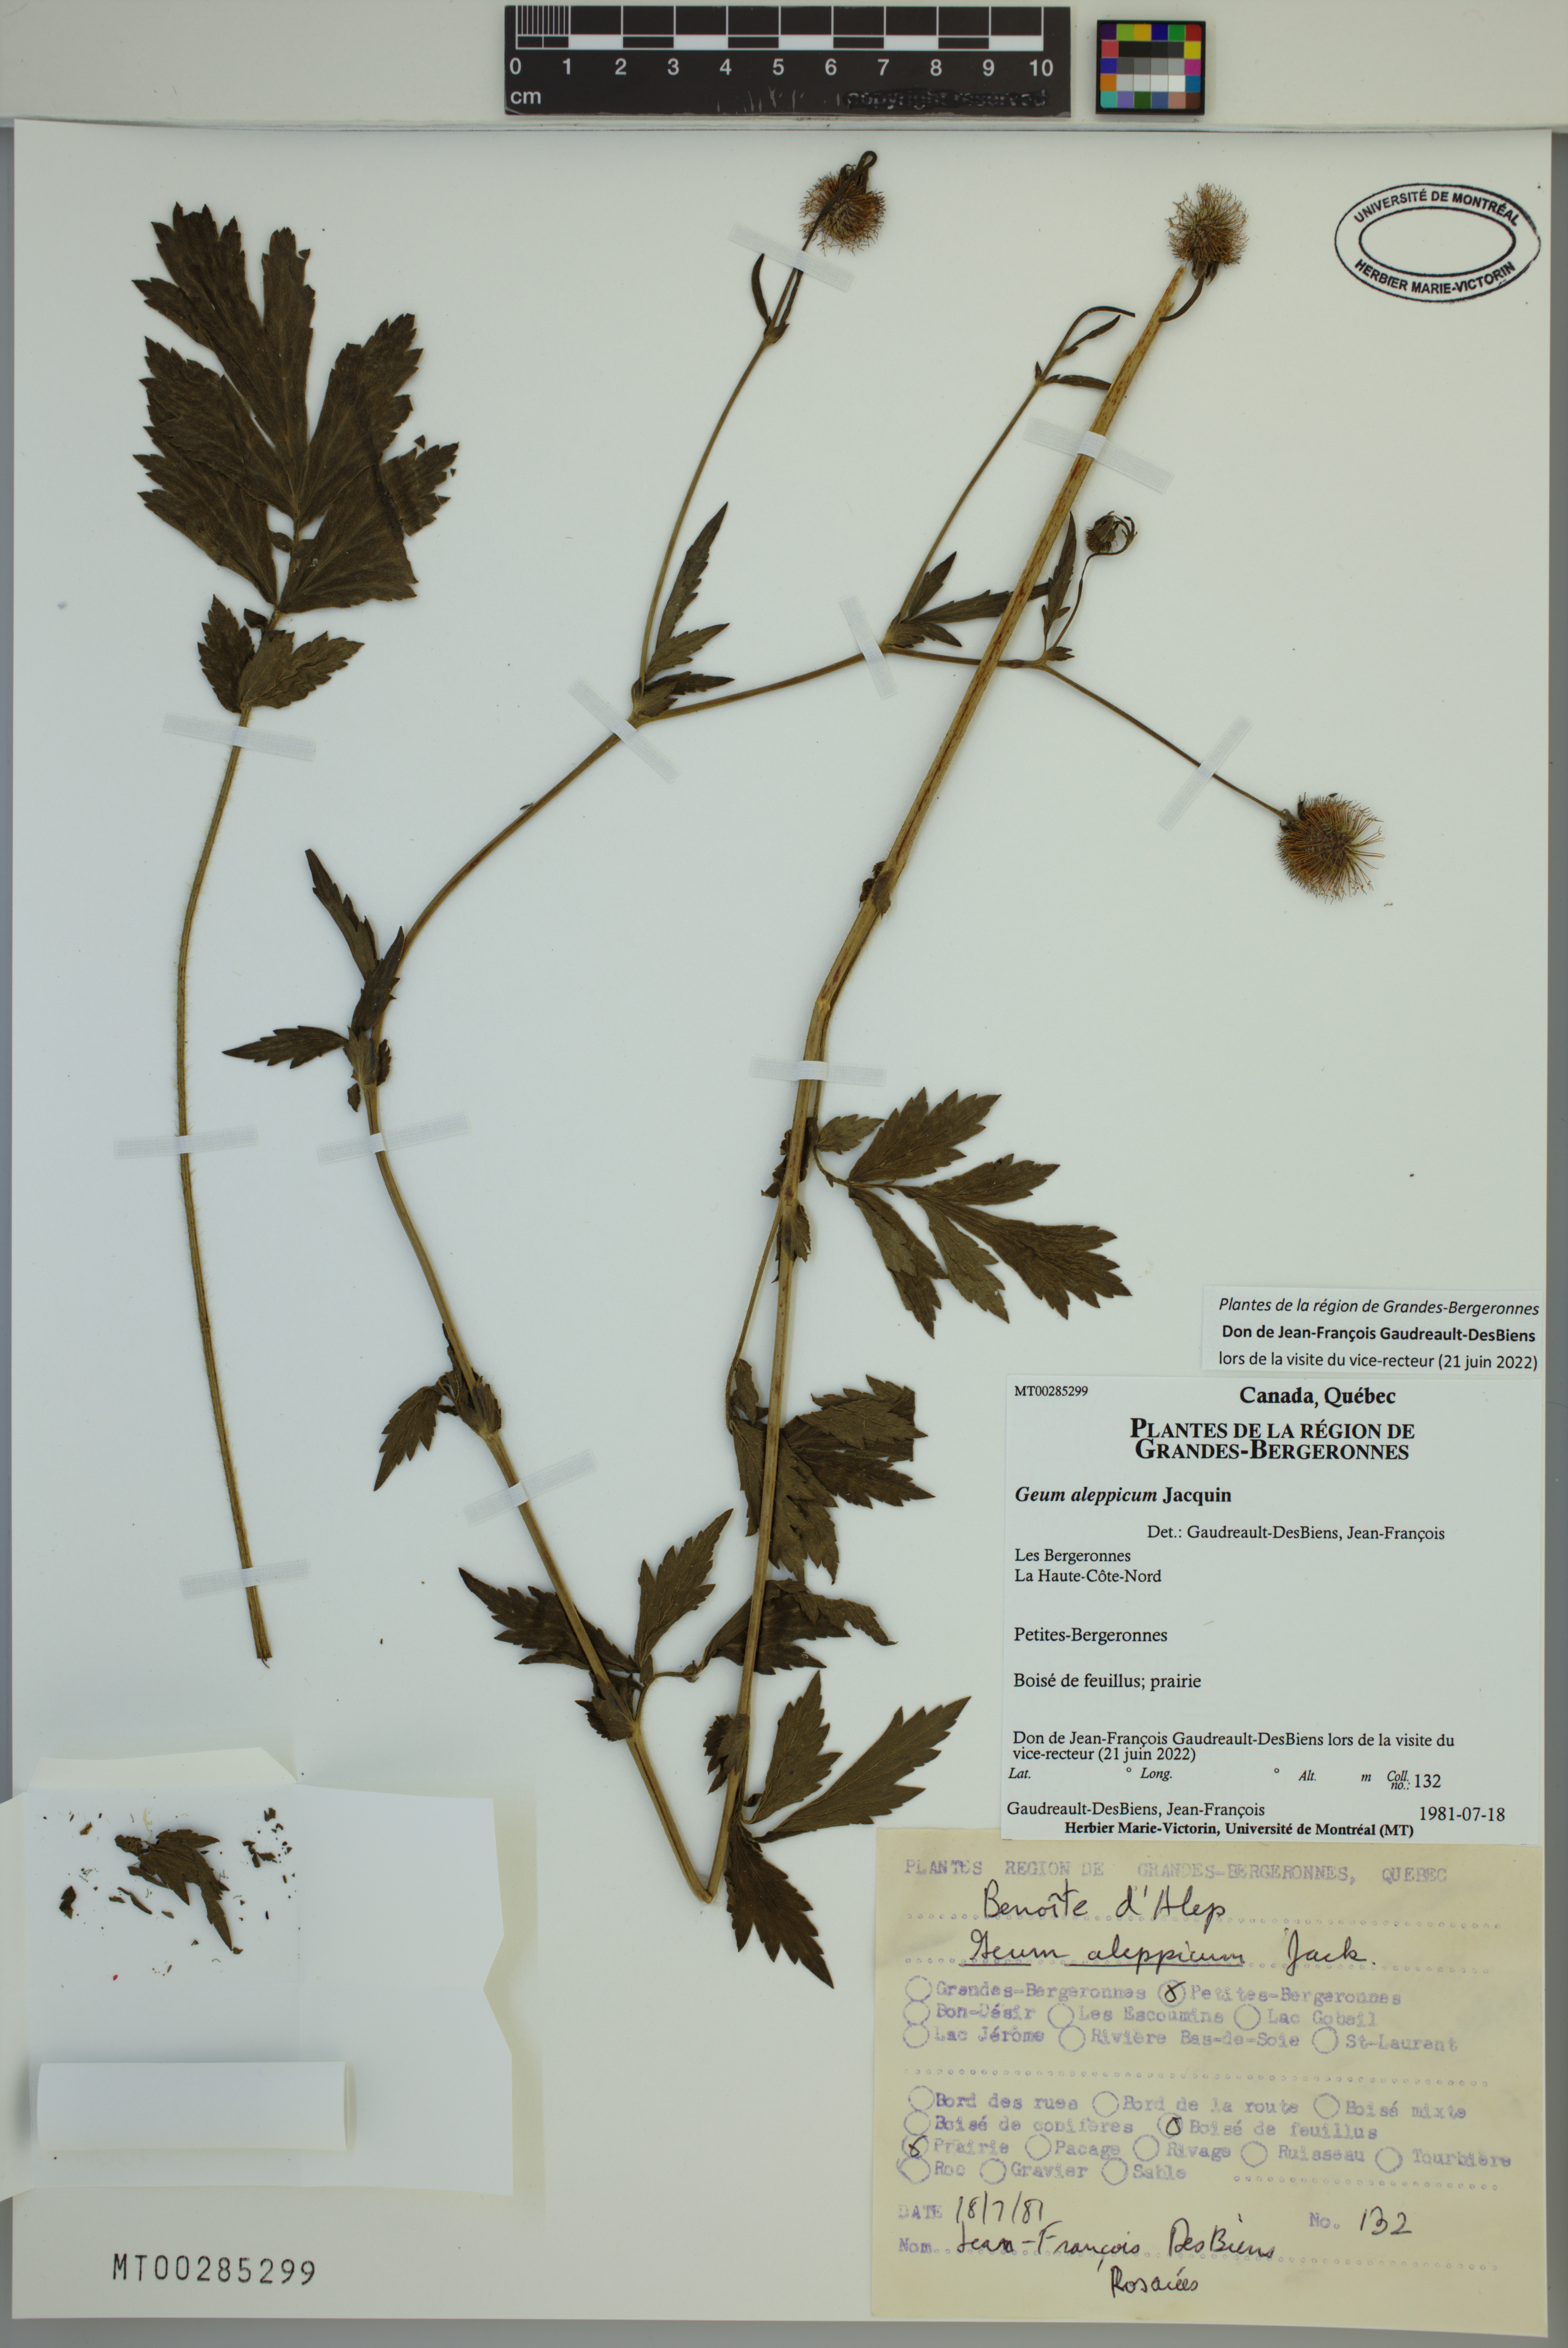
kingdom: Plantae
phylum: Tracheophyta
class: Magnoliopsida
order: Rosales
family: Rosaceae
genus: Geum
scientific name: Geum aleppicum
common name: Yellow avens
